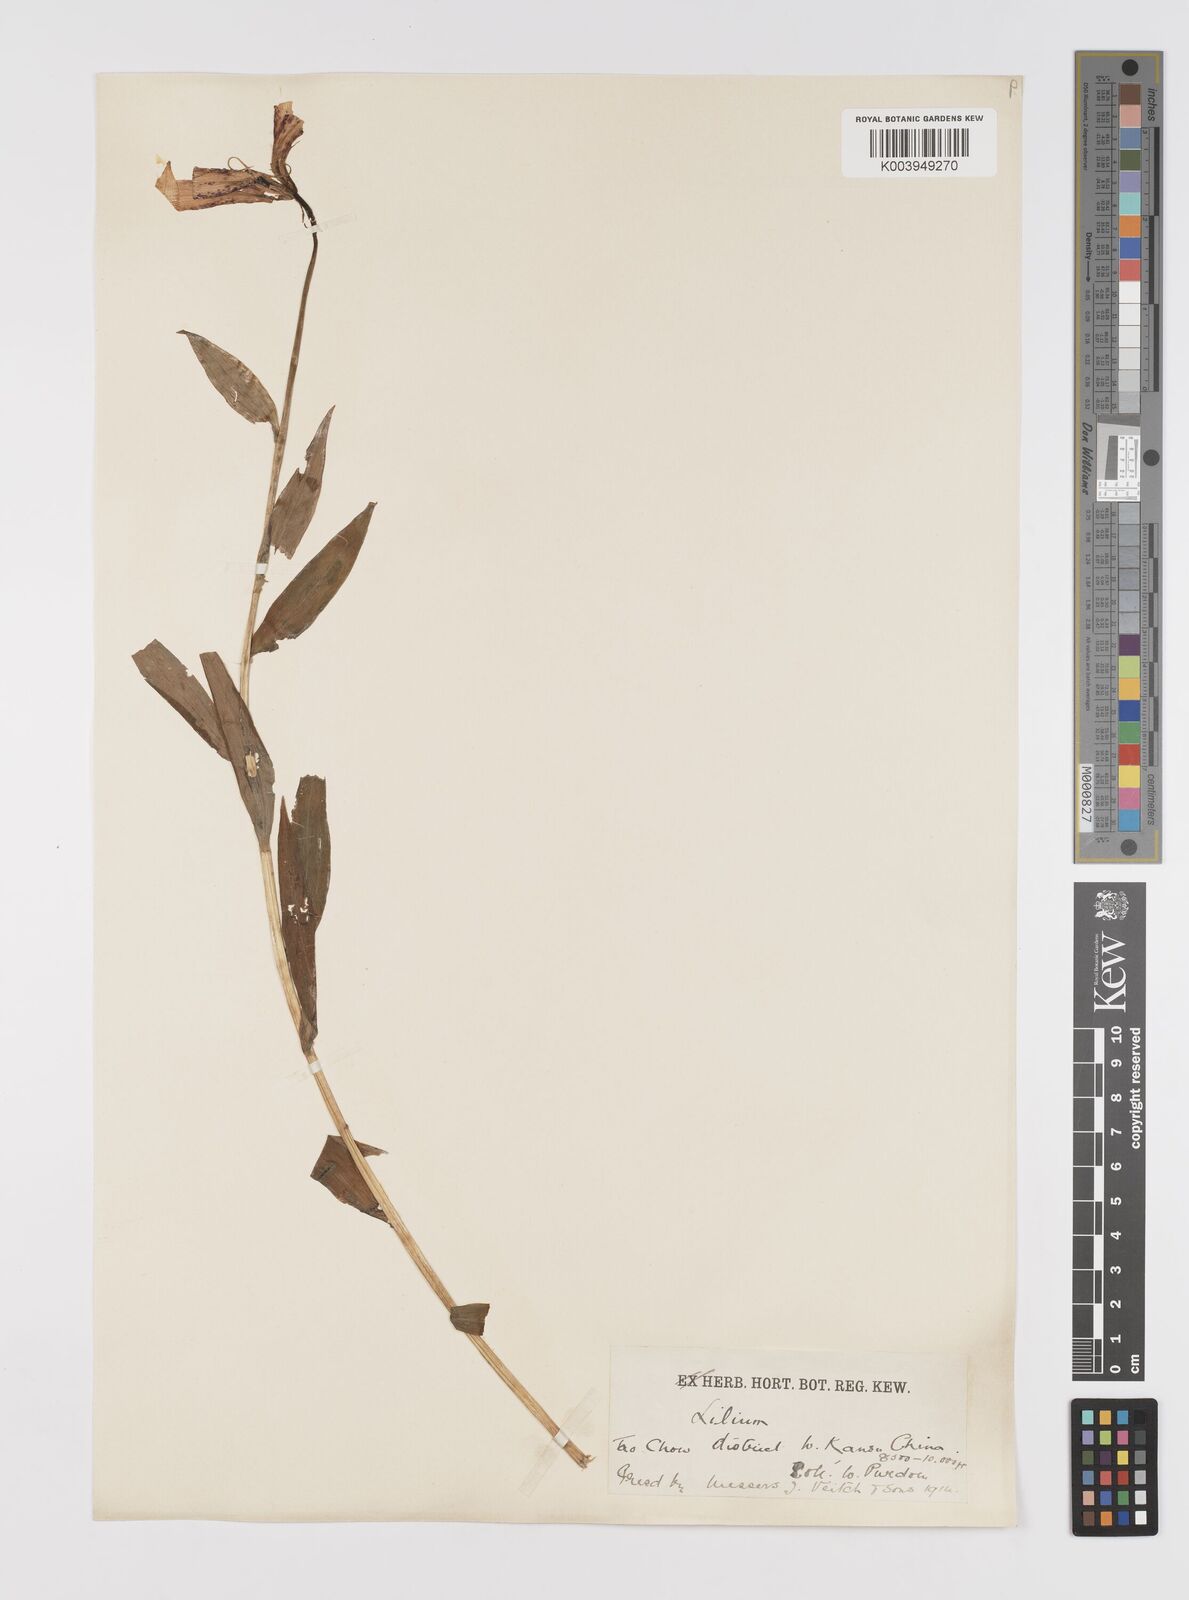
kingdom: Plantae
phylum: Tracheophyta
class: Liliopsida
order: Liliales
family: Liliaceae
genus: Lilium
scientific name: Lilium duchartrei
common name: Duchartre lily
